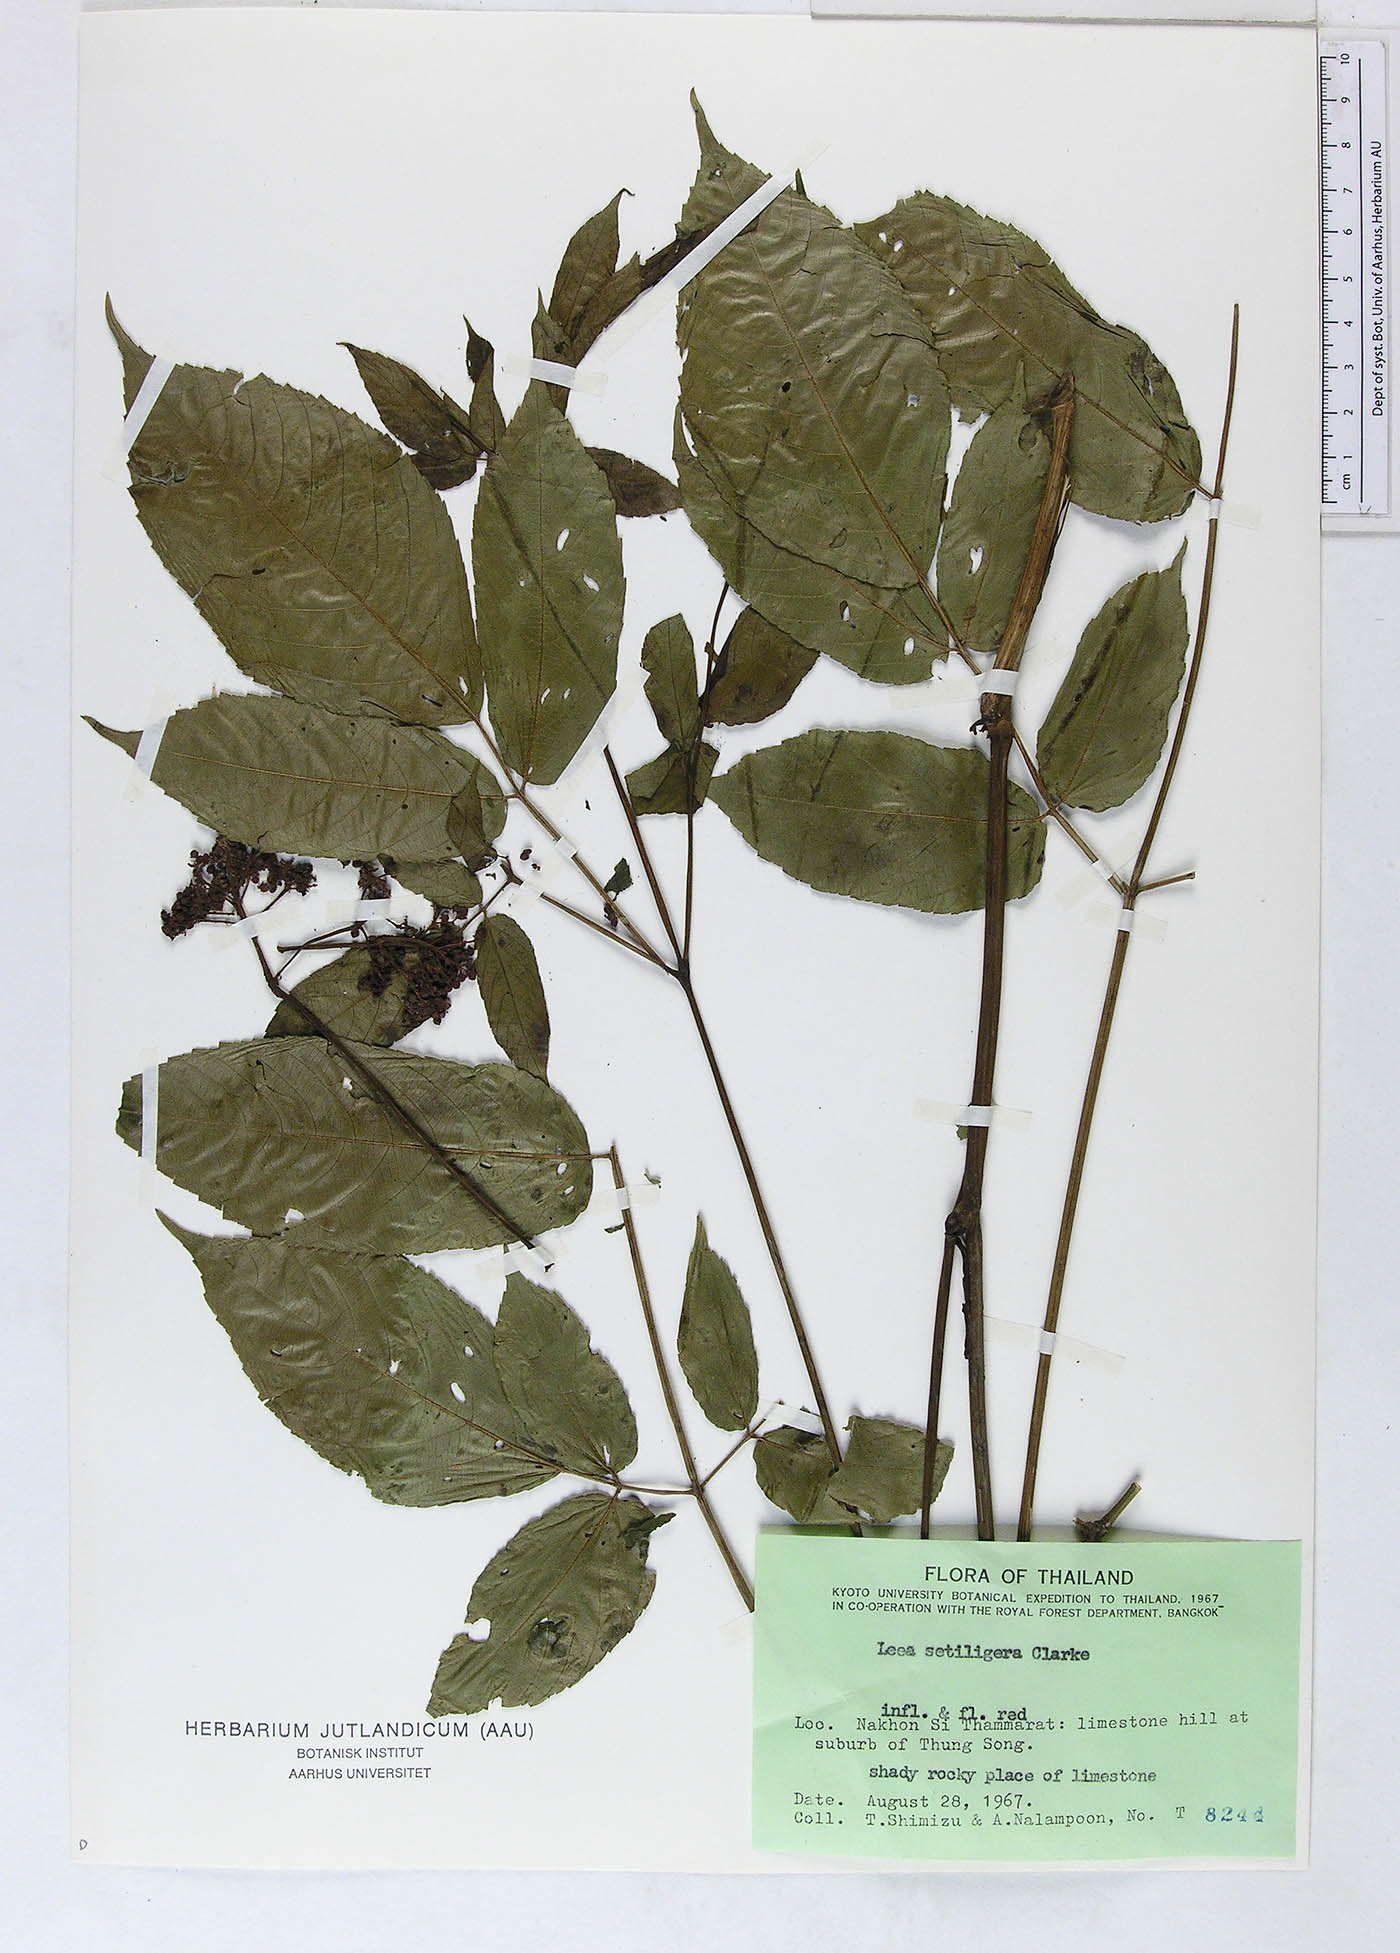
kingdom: Plantae
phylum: Tracheophyta
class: Magnoliopsida
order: Vitales
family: Vitaceae
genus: Leea
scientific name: Leea setuligera
